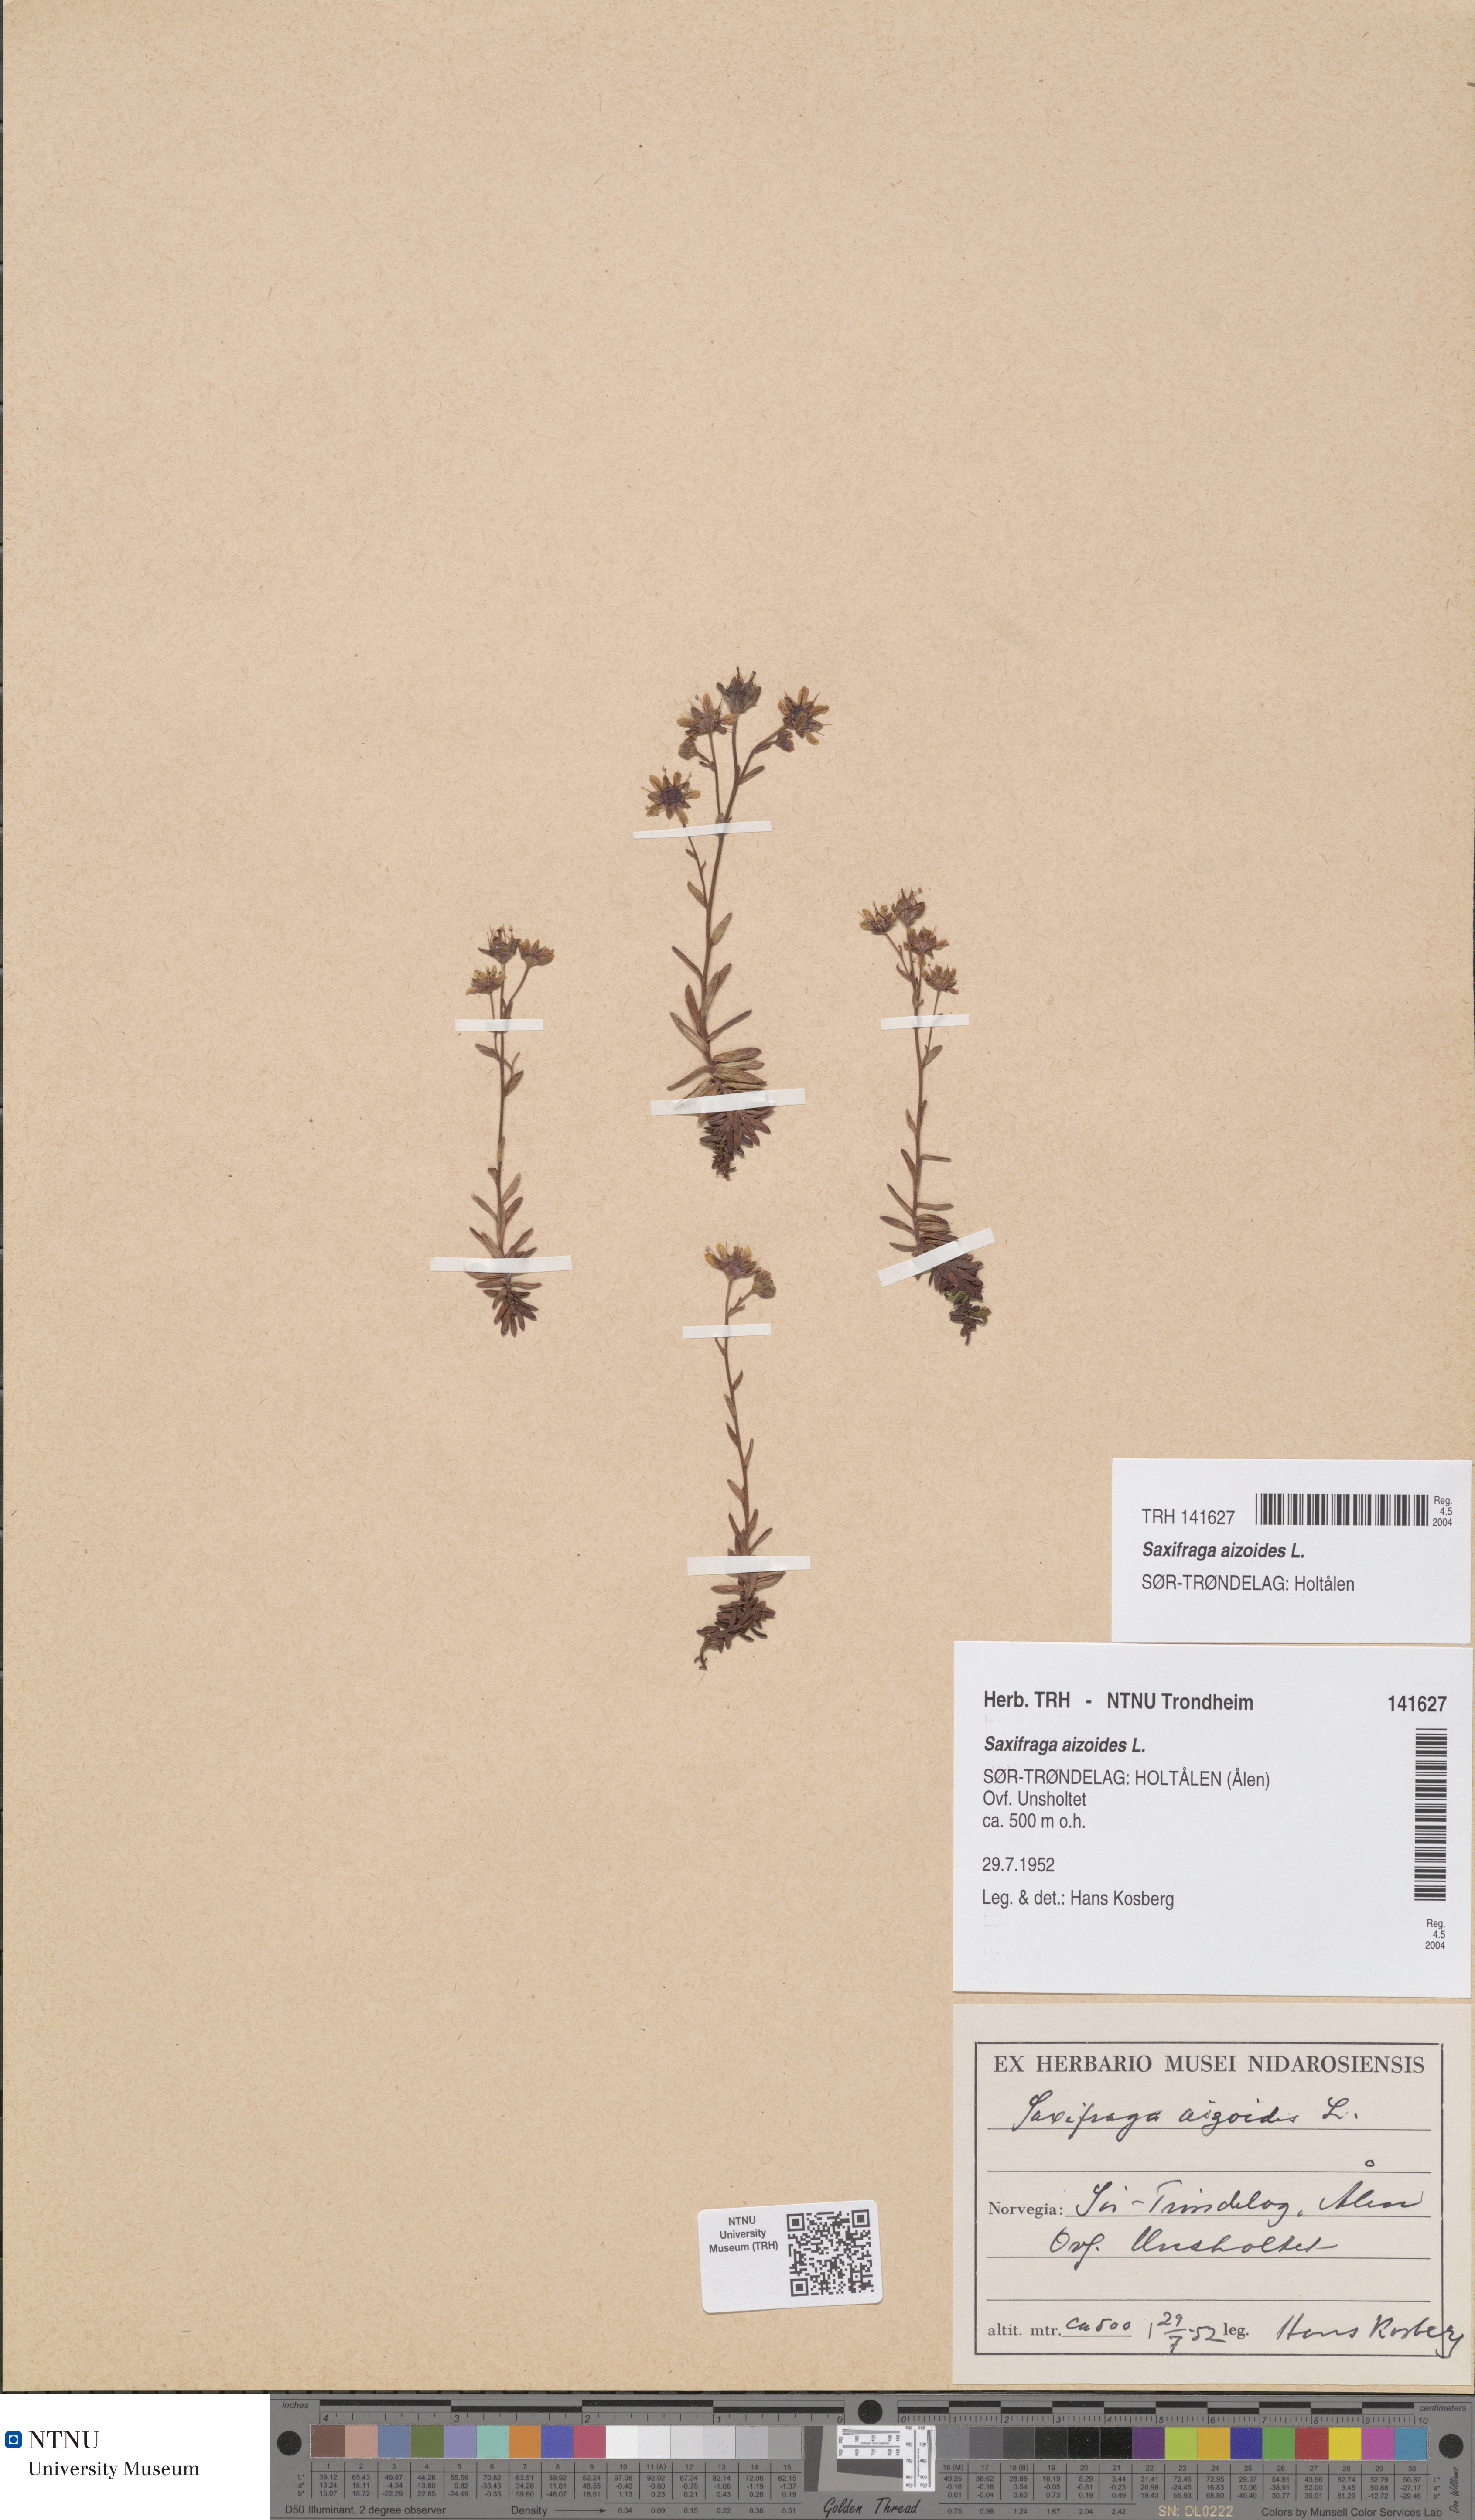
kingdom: Plantae
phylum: Tracheophyta
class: Magnoliopsida
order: Saxifragales
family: Saxifragaceae
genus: Saxifraga
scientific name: Saxifraga aizoides
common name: Yellow mountain saxifrage
